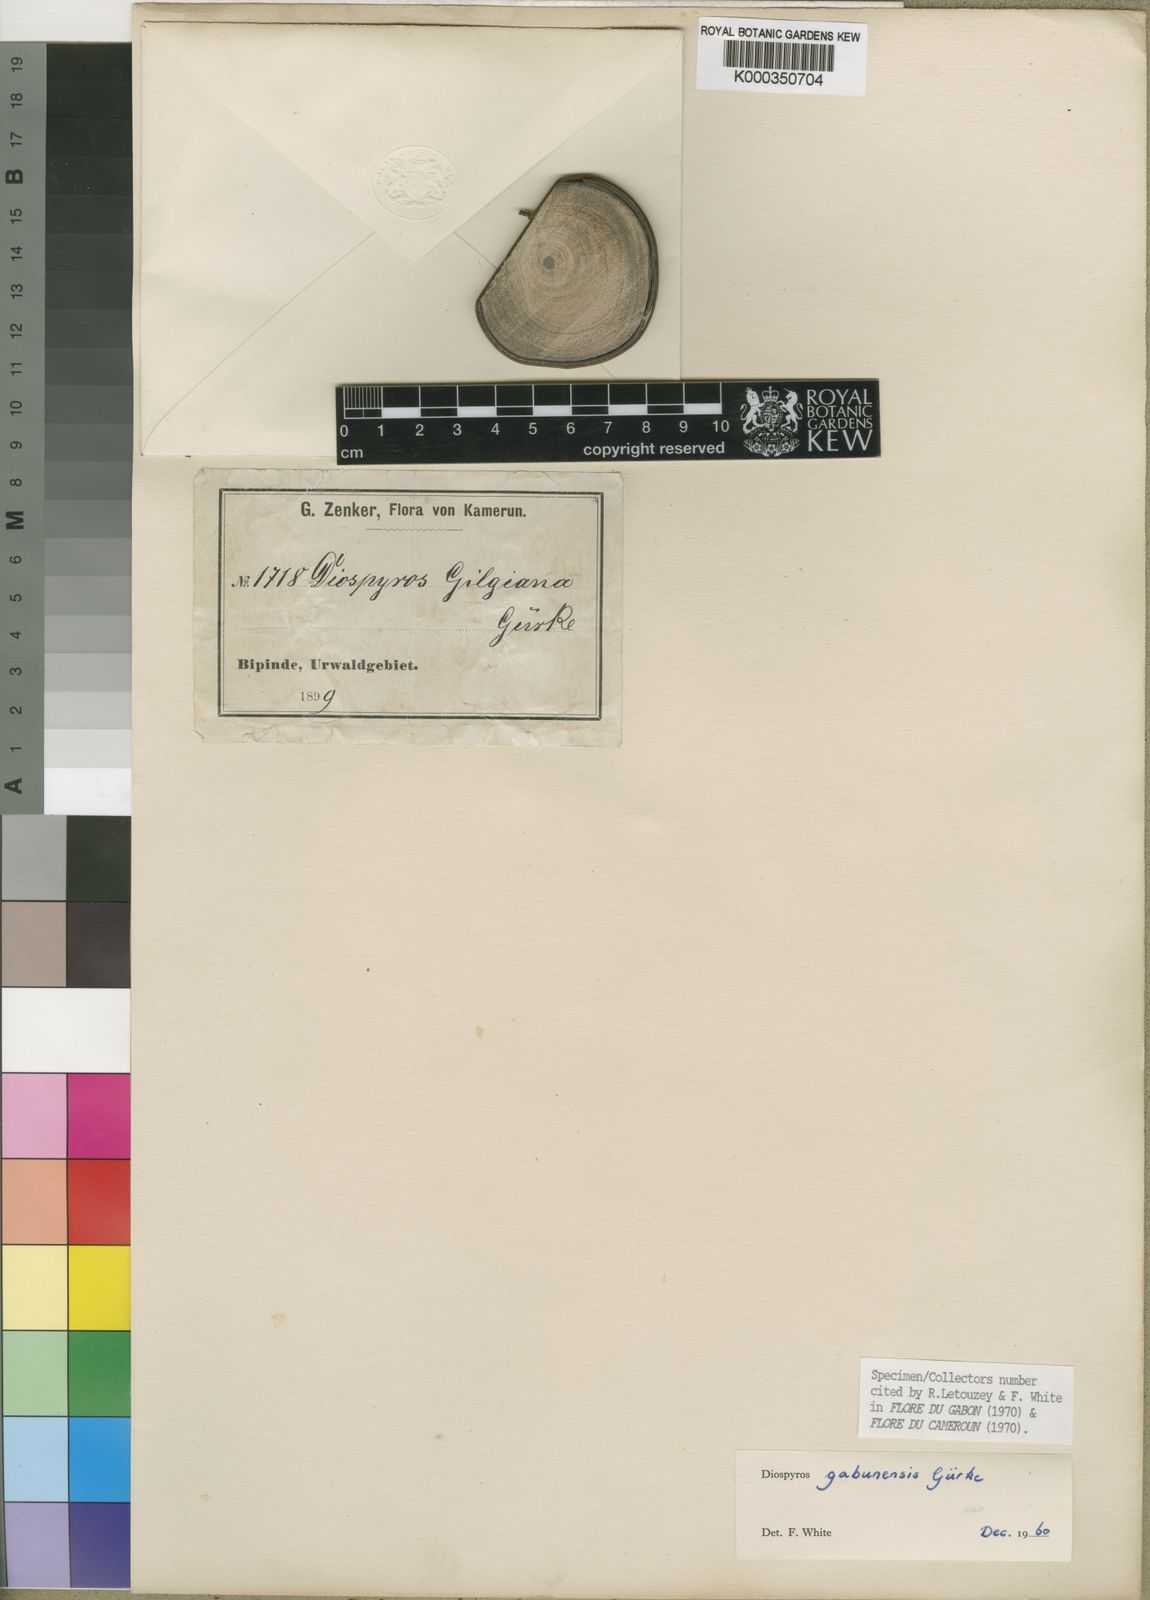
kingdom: Plantae
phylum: Tracheophyta
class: Magnoliopsida
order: Ericales
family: Ebenaceae
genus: Diospyros
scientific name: Diospyros
